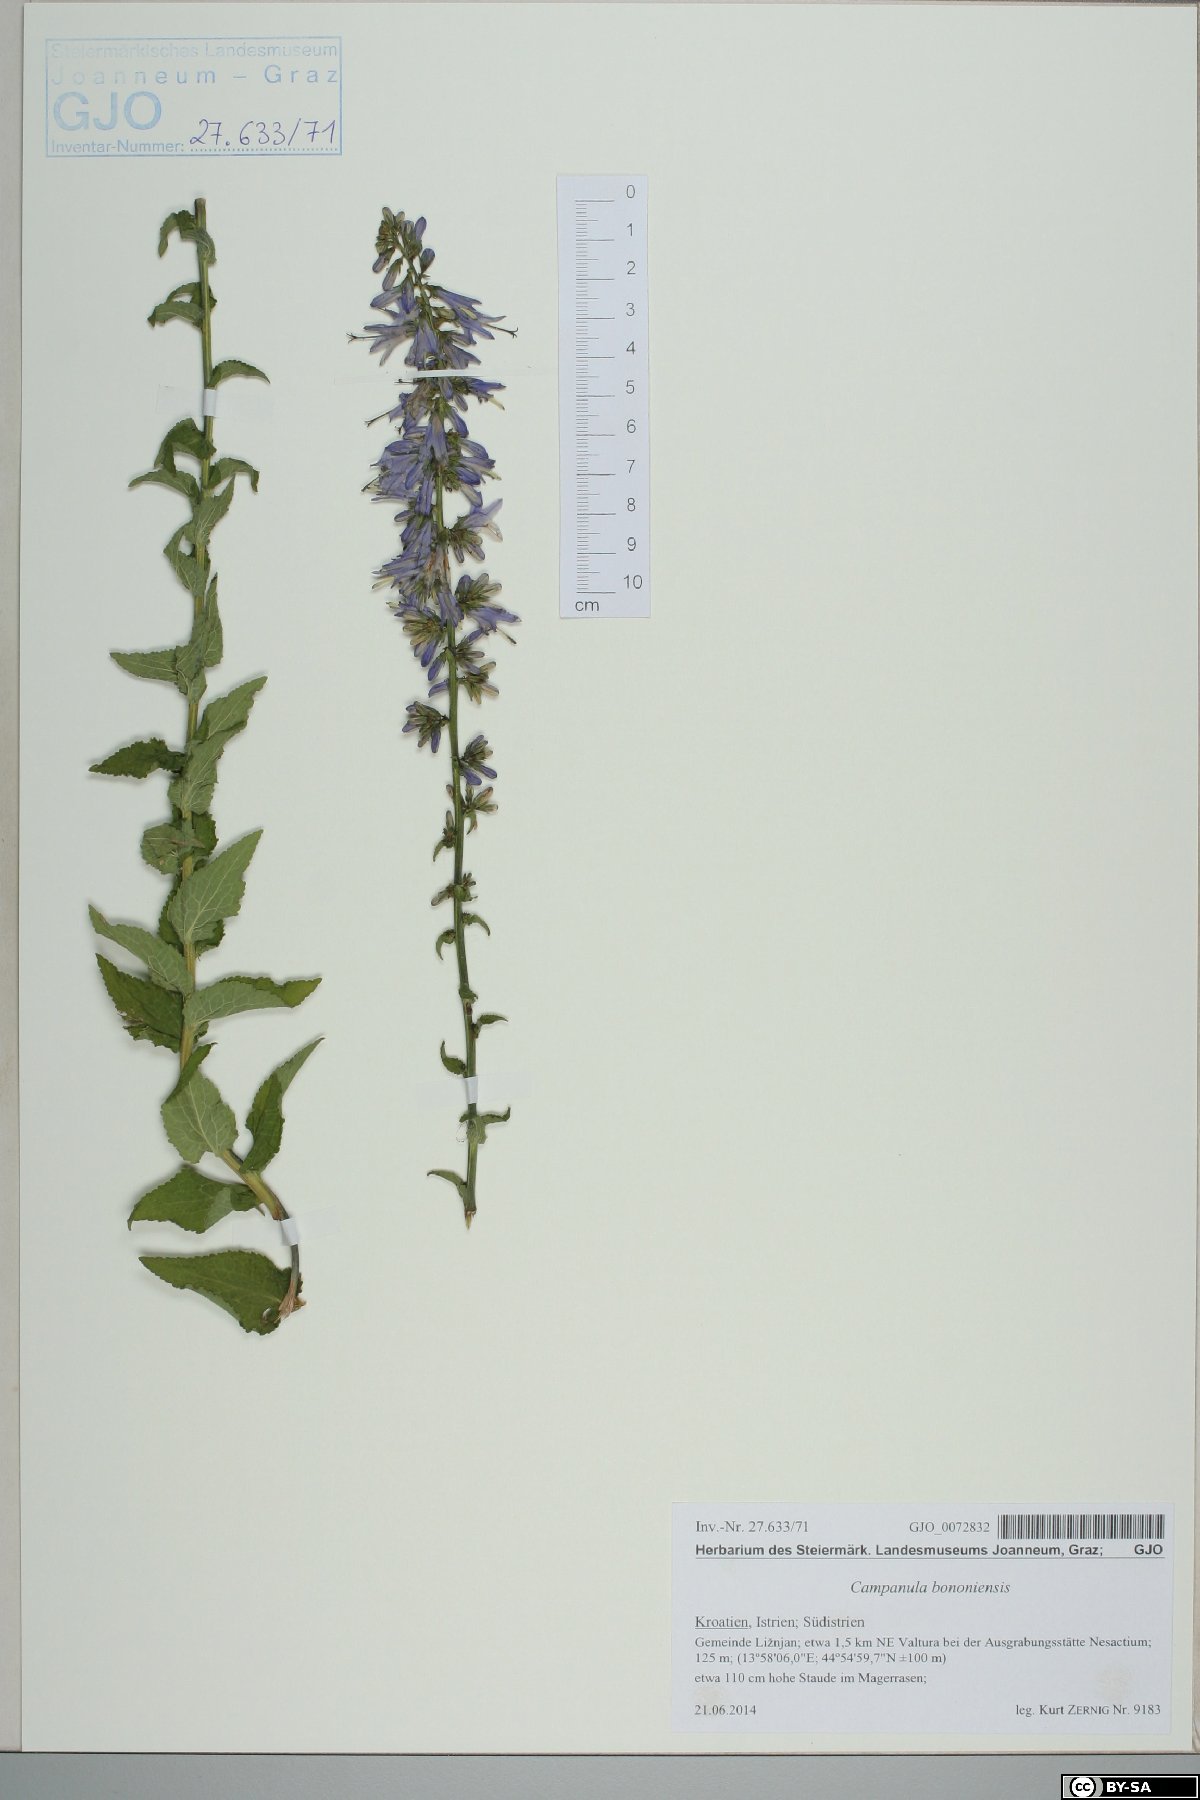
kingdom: Plantae
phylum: Tracheophyta
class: Magnoliopsida
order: Asterales
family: Campanulaceae
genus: Campanula
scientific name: Campanula bononiensis
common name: Pale bellflower
